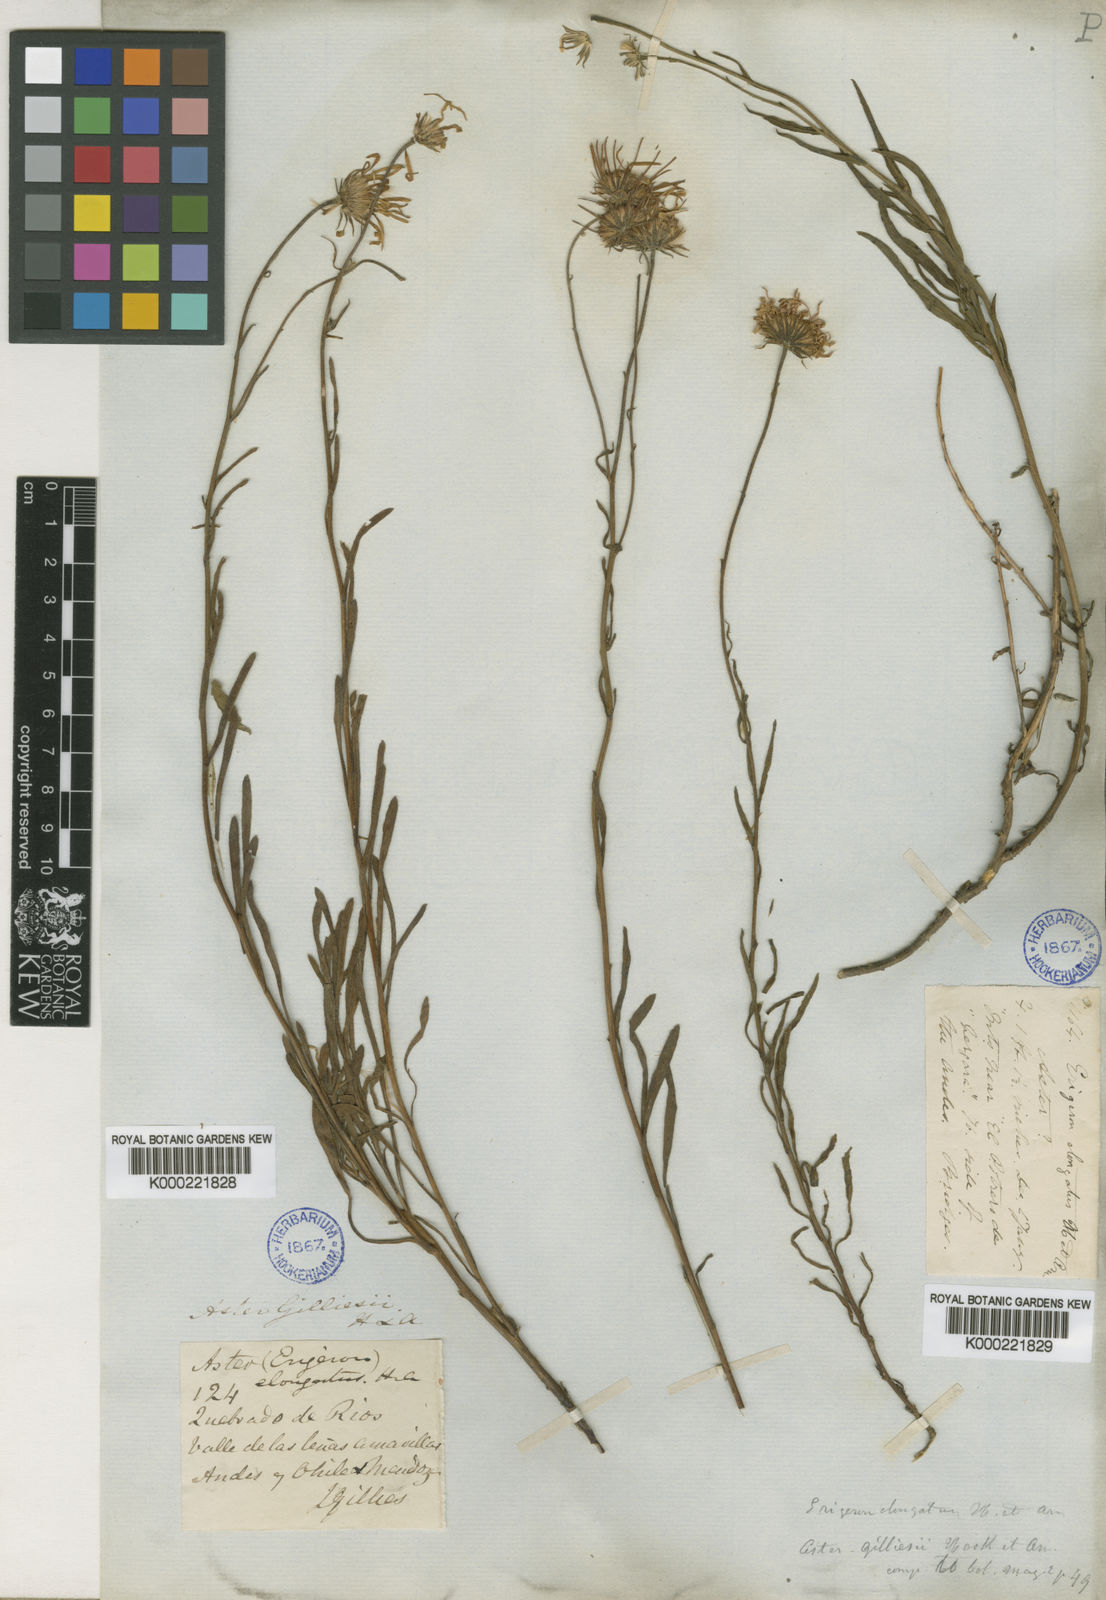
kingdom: Plantae
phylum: Tracheophyta
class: Magnoliopsida
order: Asterales
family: Asteraceae
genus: Erigeron
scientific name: Erigeron gilliesii
